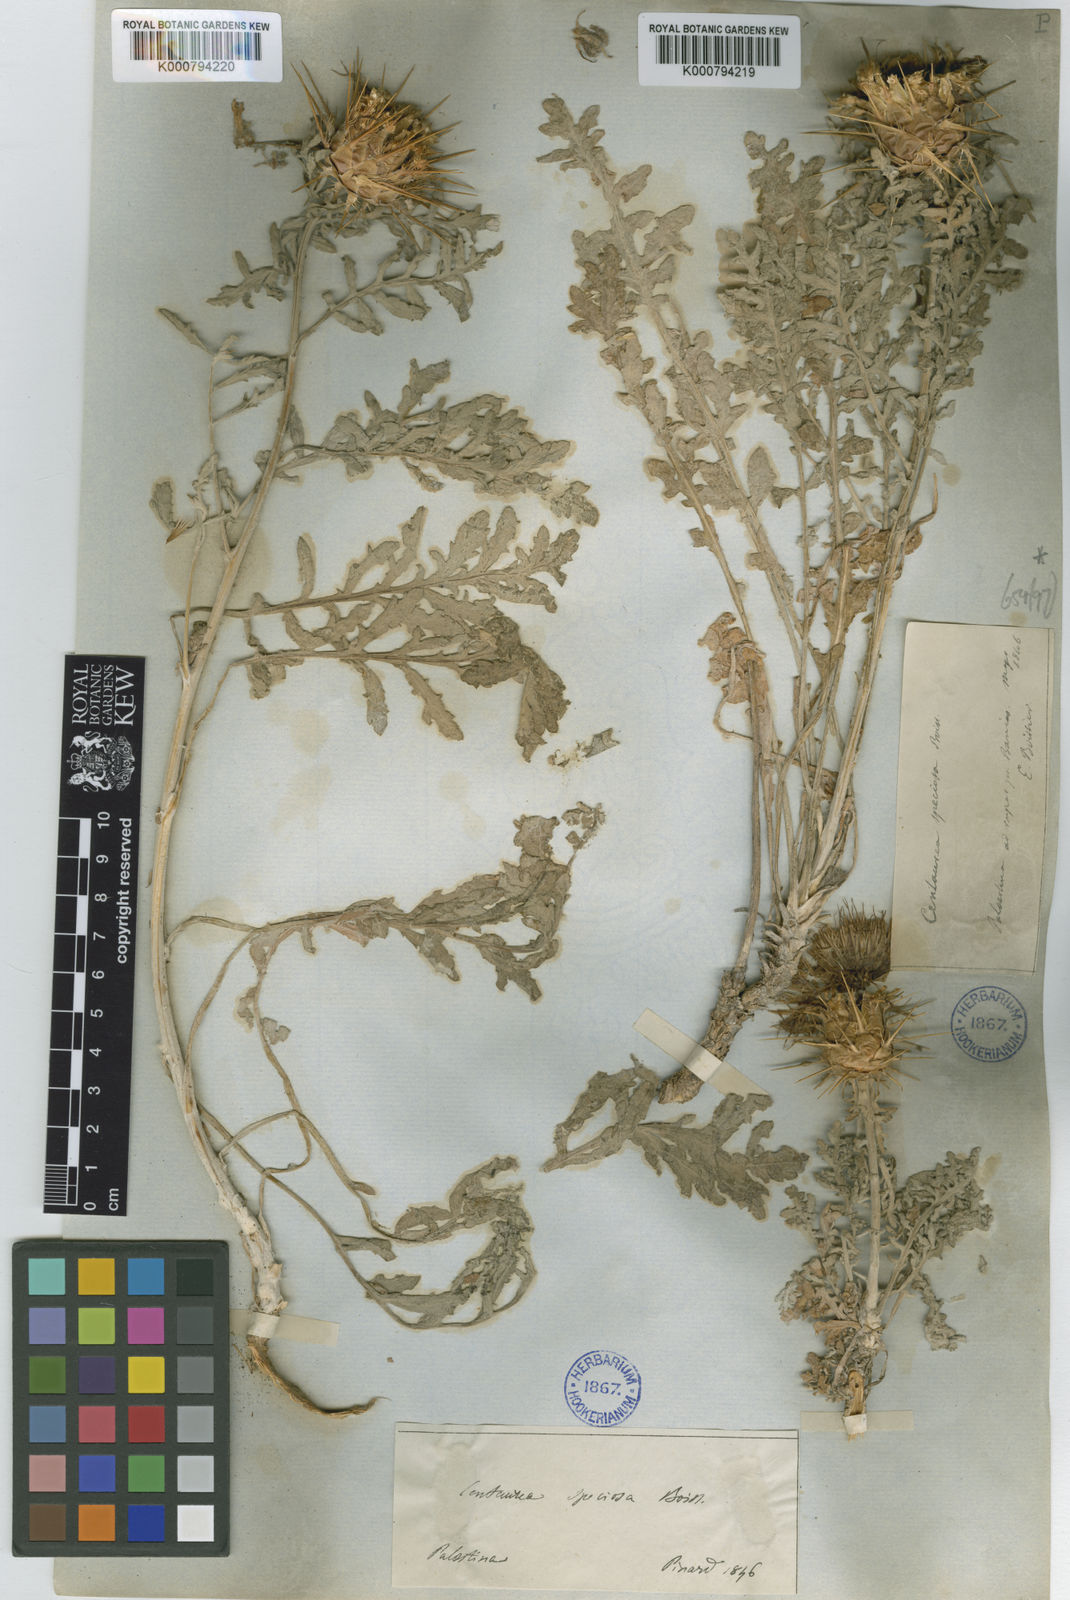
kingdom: Plantae
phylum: Tracheophyta
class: Magnoliopsida
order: Asterales
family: Asteraceae
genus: Centaurea
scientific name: Centaurea speciosa
